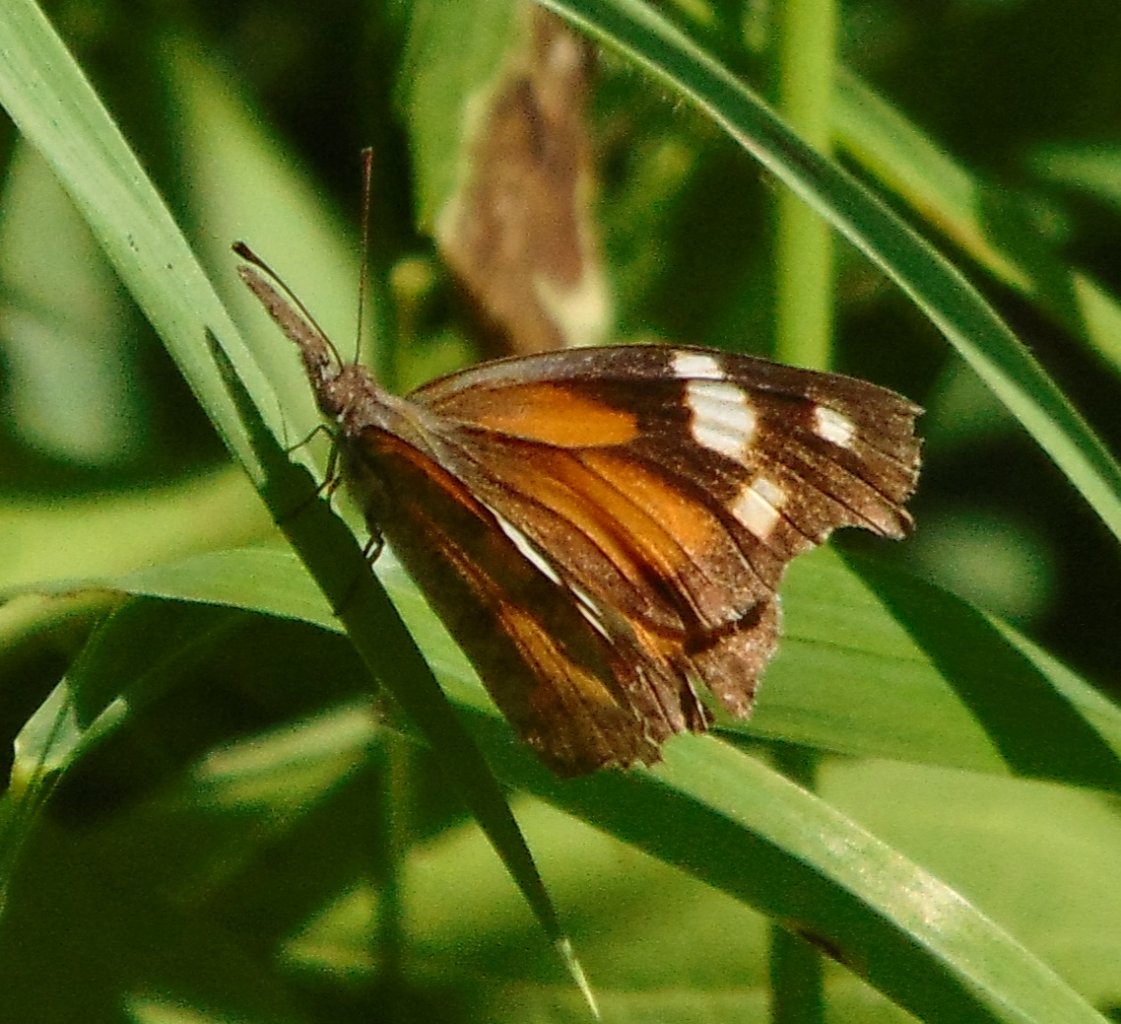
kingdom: Animalia
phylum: Arthropoda
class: Insecta
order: Lepidoptera
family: Nymphalidae
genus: Libytheana
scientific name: Libytheana carinenta
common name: American Snout
